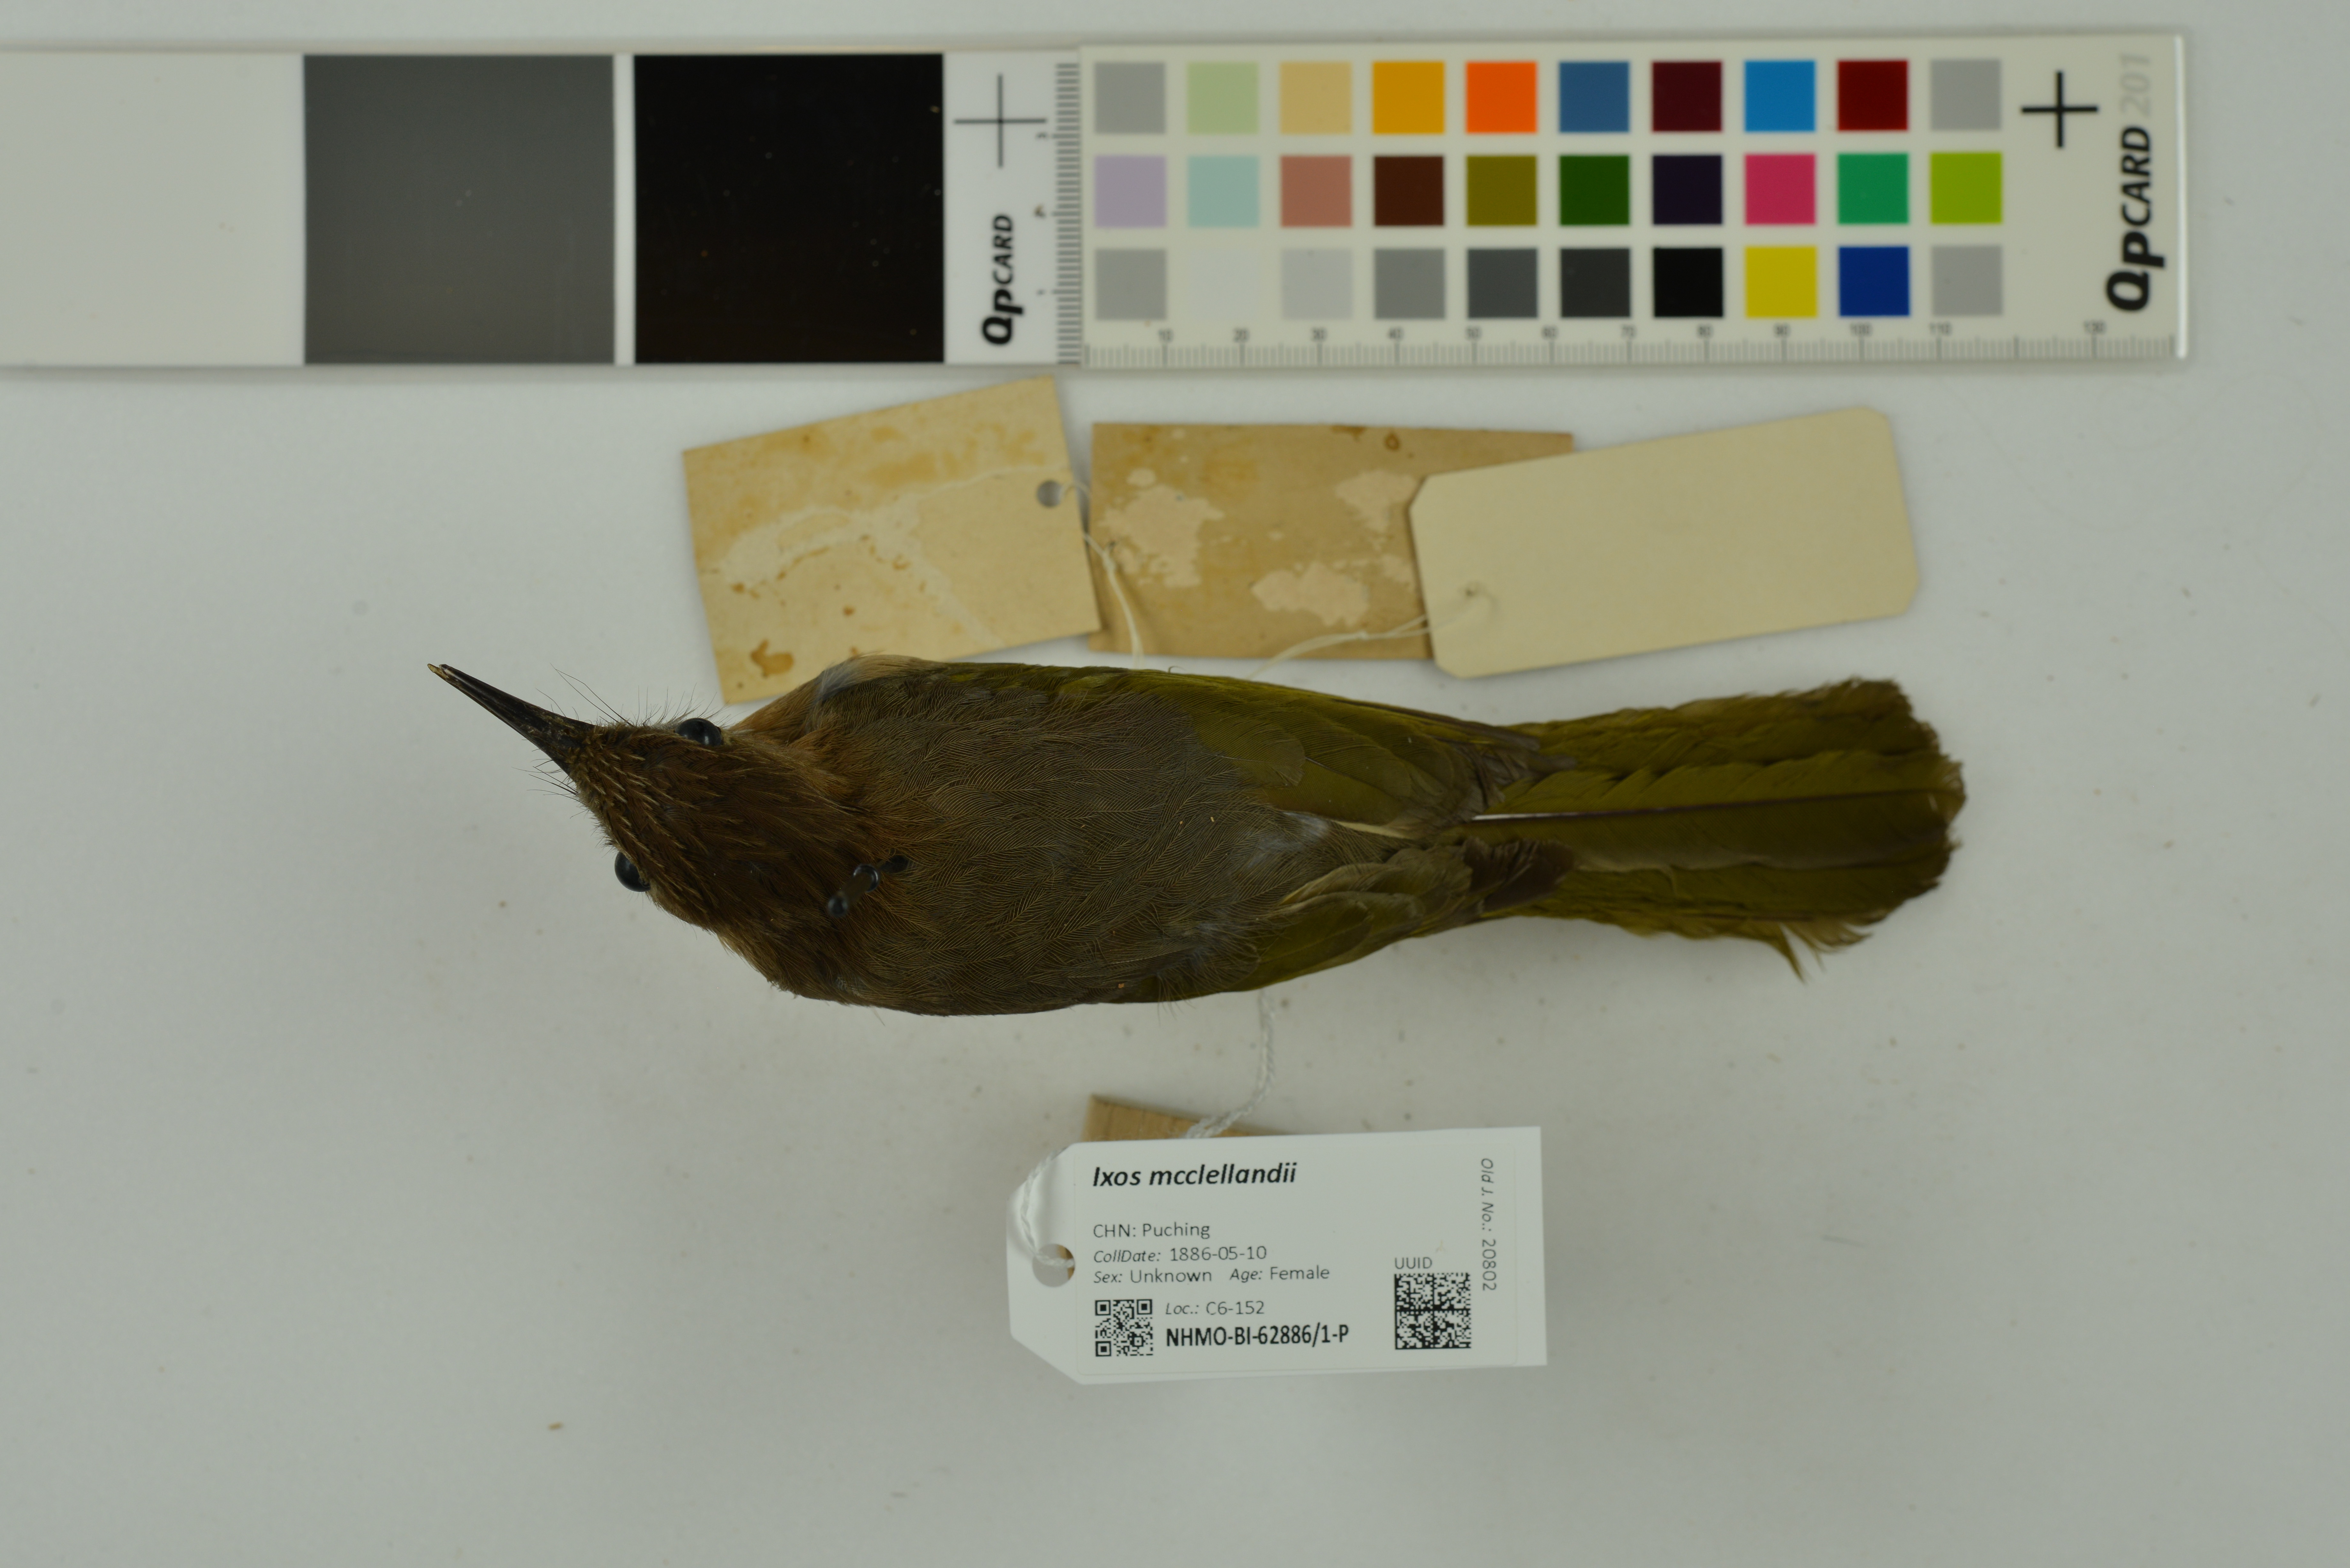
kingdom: Animalia
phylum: Chordata
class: Aves
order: Passeriformes
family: Pycnonotidae
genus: Ixos
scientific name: Ixos mcclellandii
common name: Mountain bulbul
